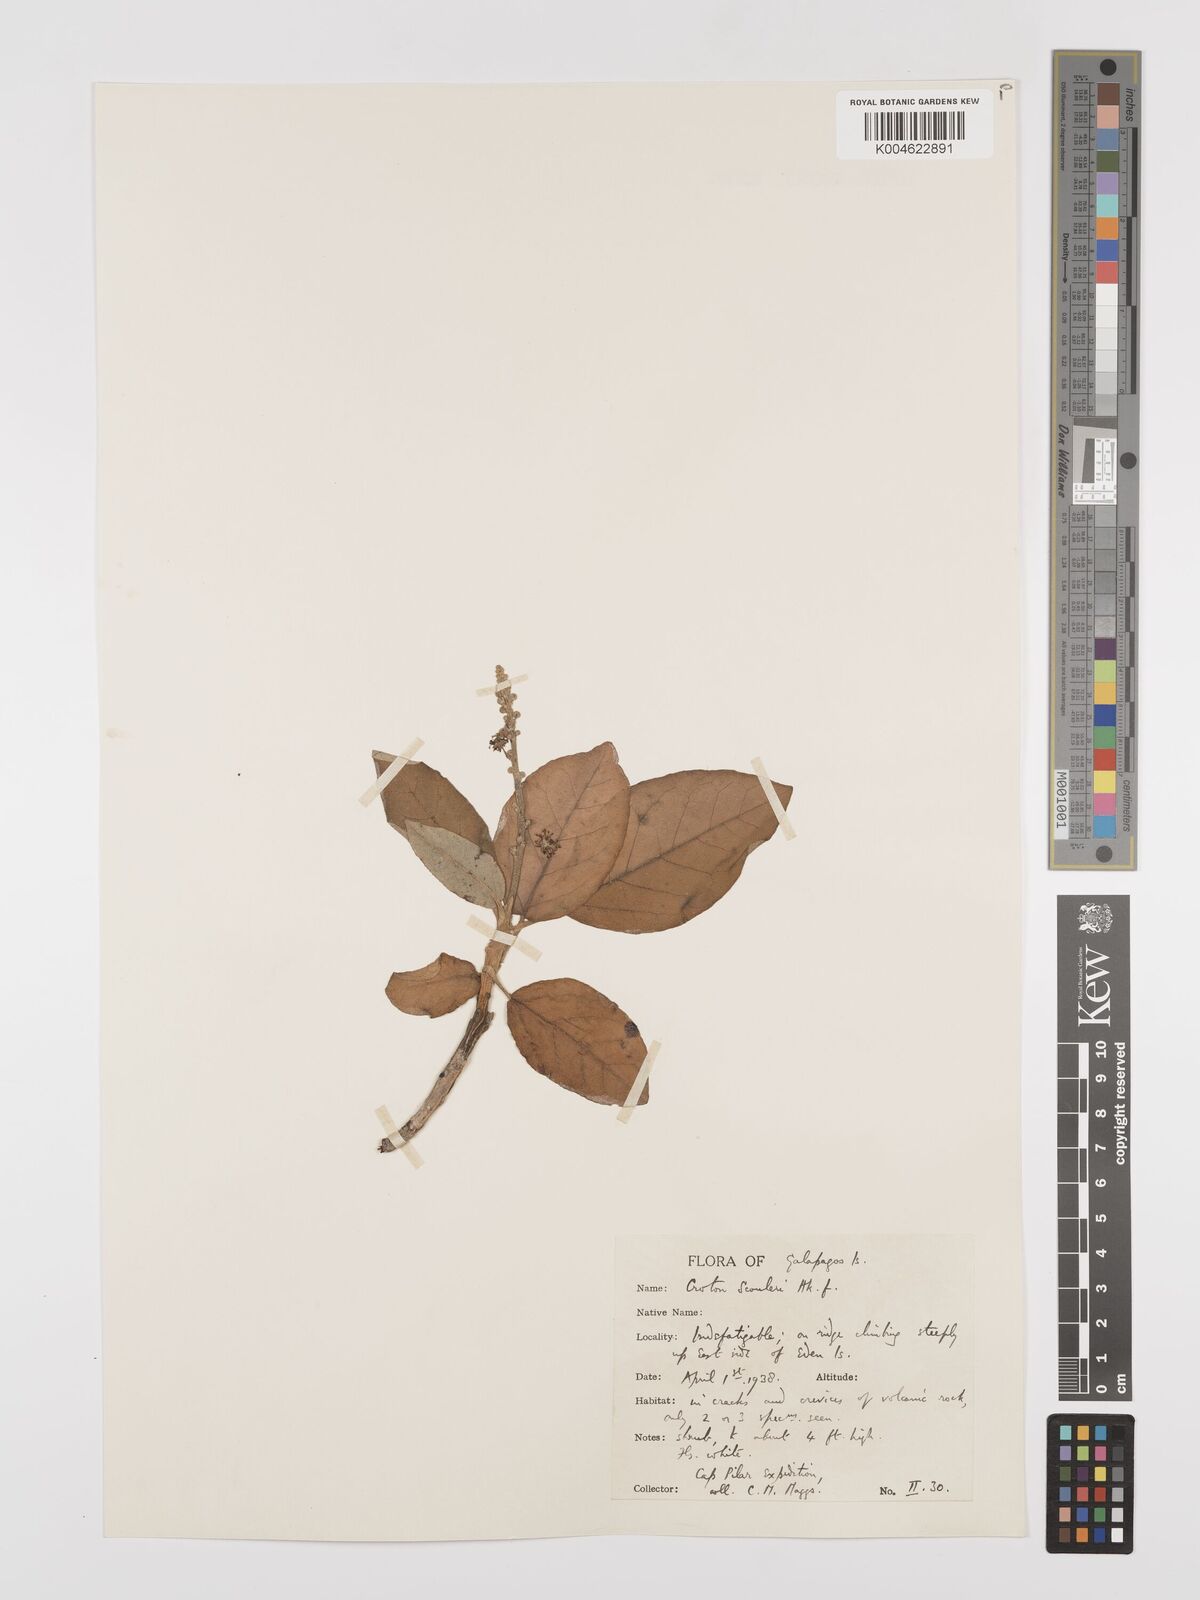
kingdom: Plantae
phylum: Tracheophyta
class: Magnoliopsida
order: Malpighiales
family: Euphorbiaceae
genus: Croton
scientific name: Croton scouleri
